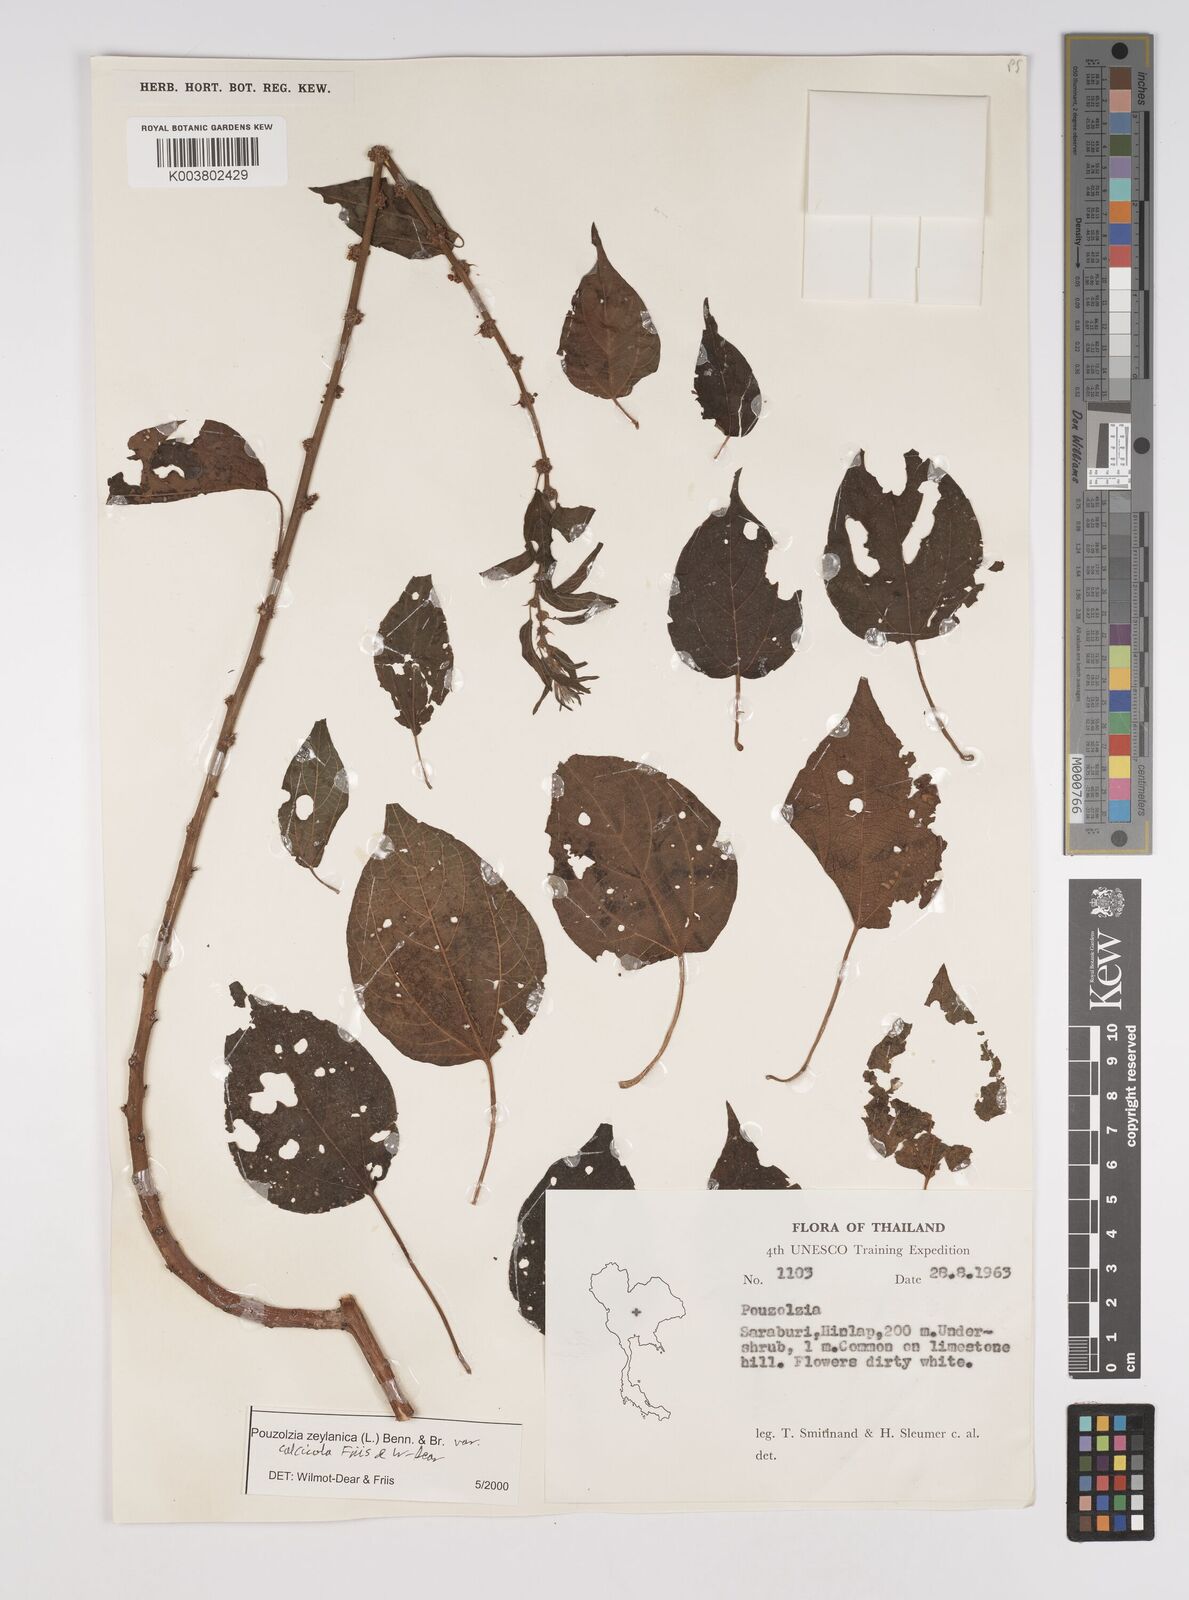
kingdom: Plantae
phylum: Tracheophyta
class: Magnoliopsida
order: Rosales
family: Urticaceae
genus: Pouzolzia
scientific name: Pouzolzia zeylanica
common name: Graceful pouzolzsbush
